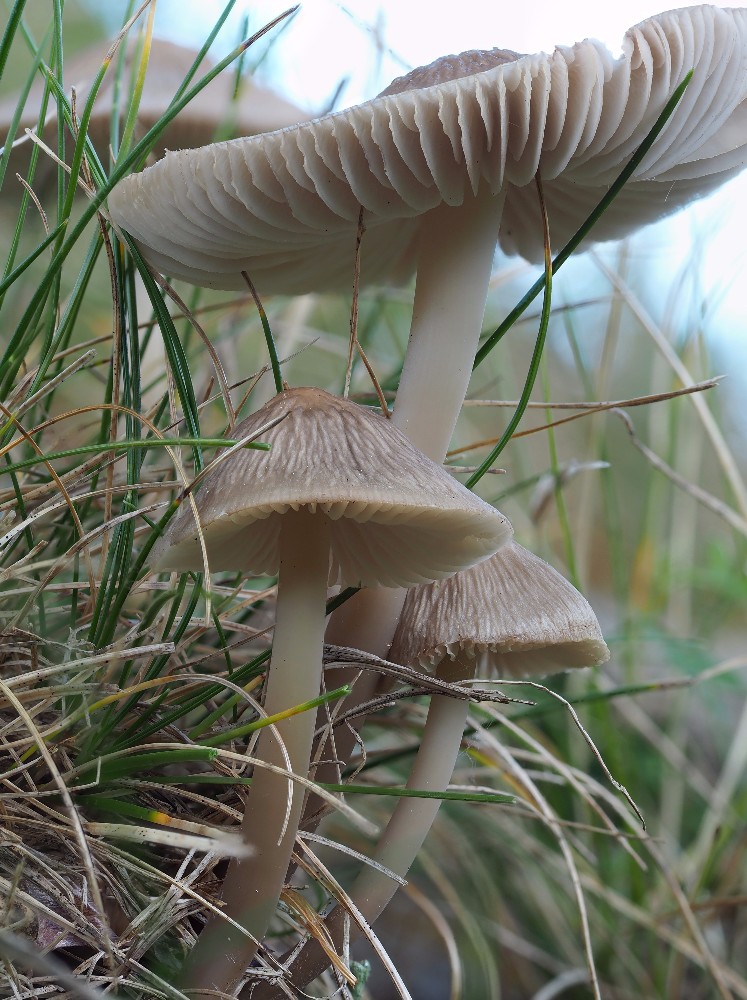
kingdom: Fungi
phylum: Basidiomycota
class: Agaricomycetes
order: Agaricales
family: Mycenaceae
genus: Mycena
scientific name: Mycena galericulata
